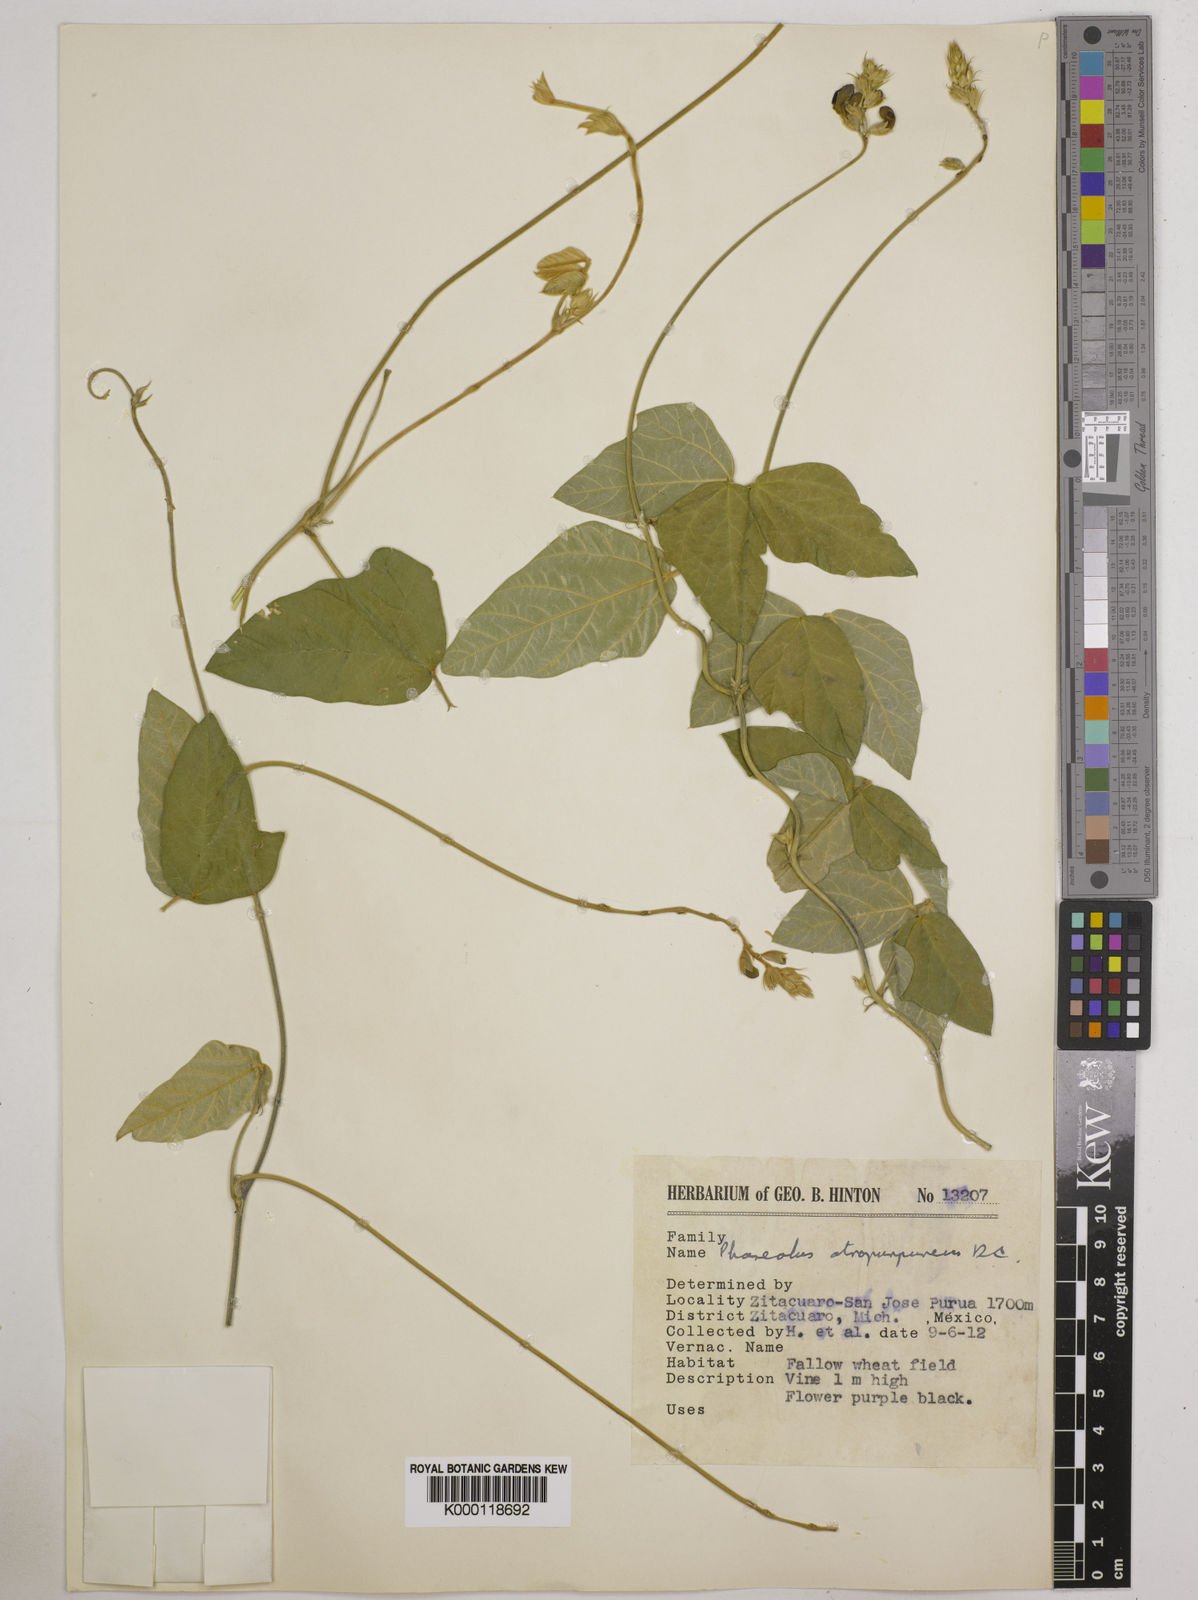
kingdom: Plantae
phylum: Tracheophyta
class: Magnoliopsida
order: Fabales
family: Fabaceae
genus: Macroptilium
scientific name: Macroptilium atropurpureum
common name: Purple bushbean
